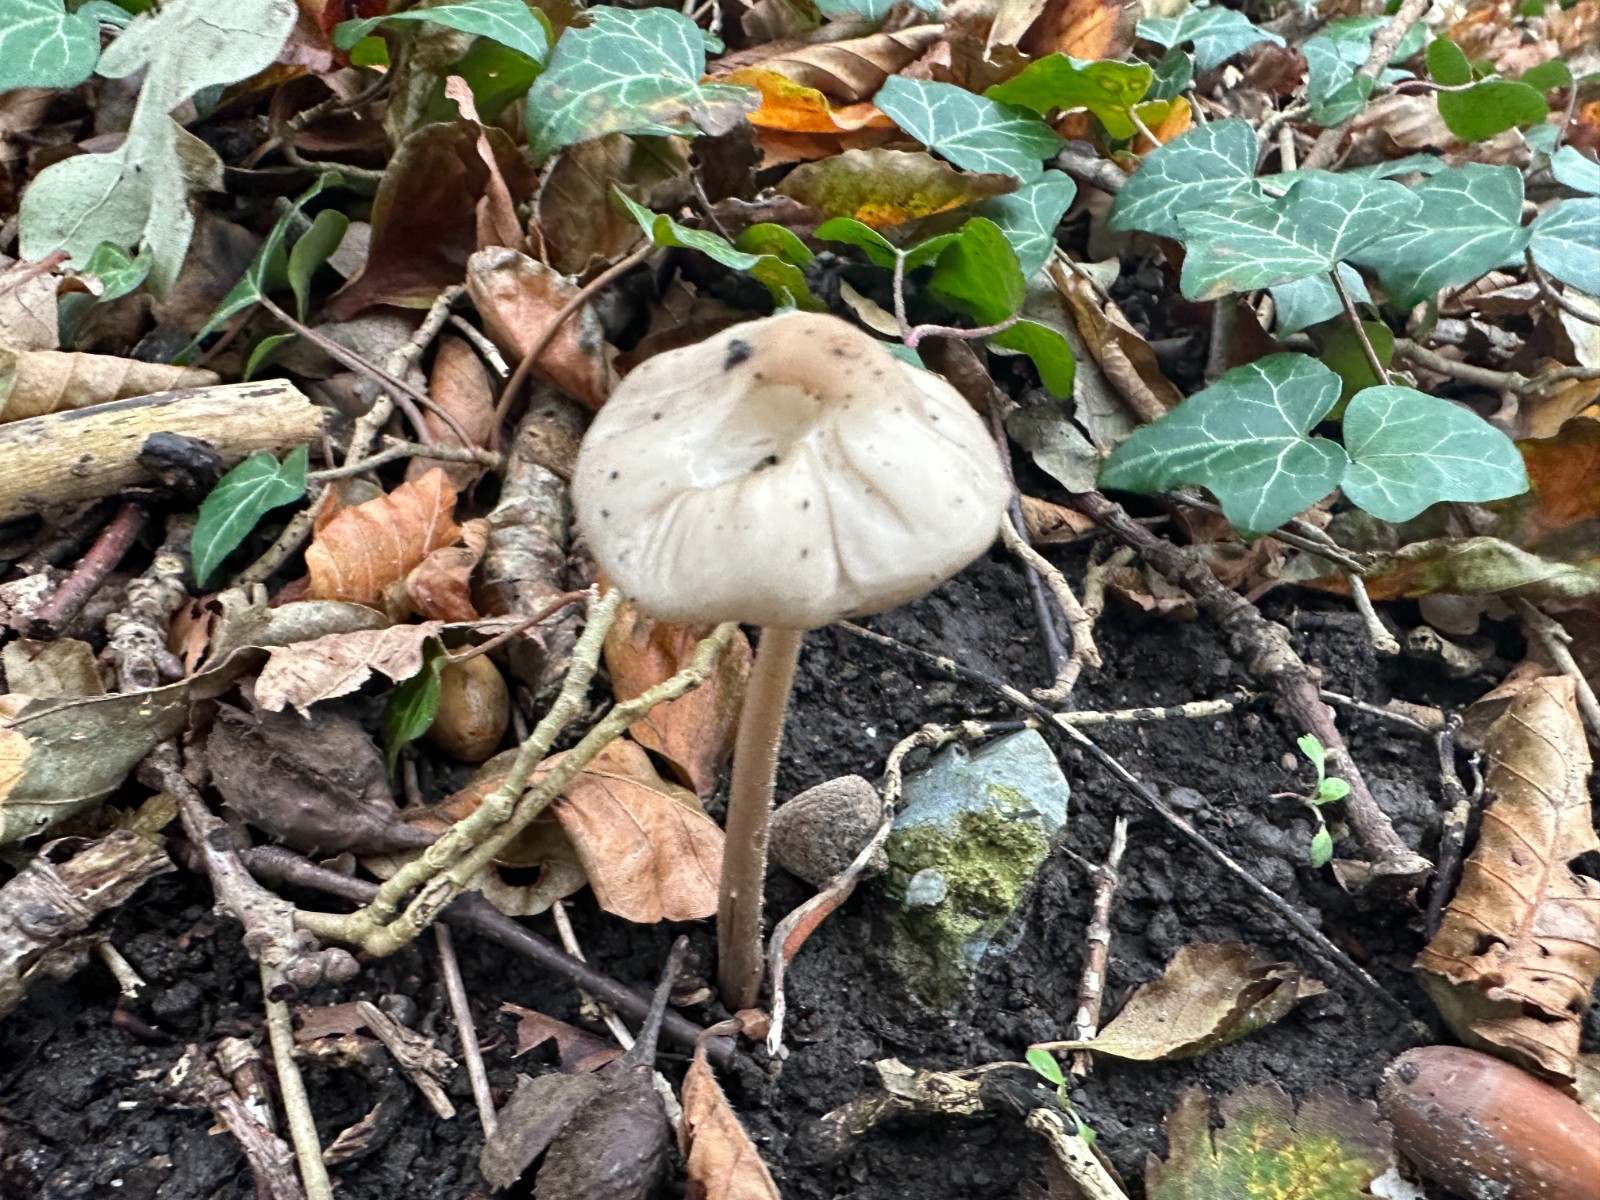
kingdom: Fungi
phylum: Basidiomycota
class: Agaricomycetes
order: Agaricales
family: Physalacriaceae
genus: Hymenopellis
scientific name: Hymenopellis radicata
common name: almindelig pælerodshat
